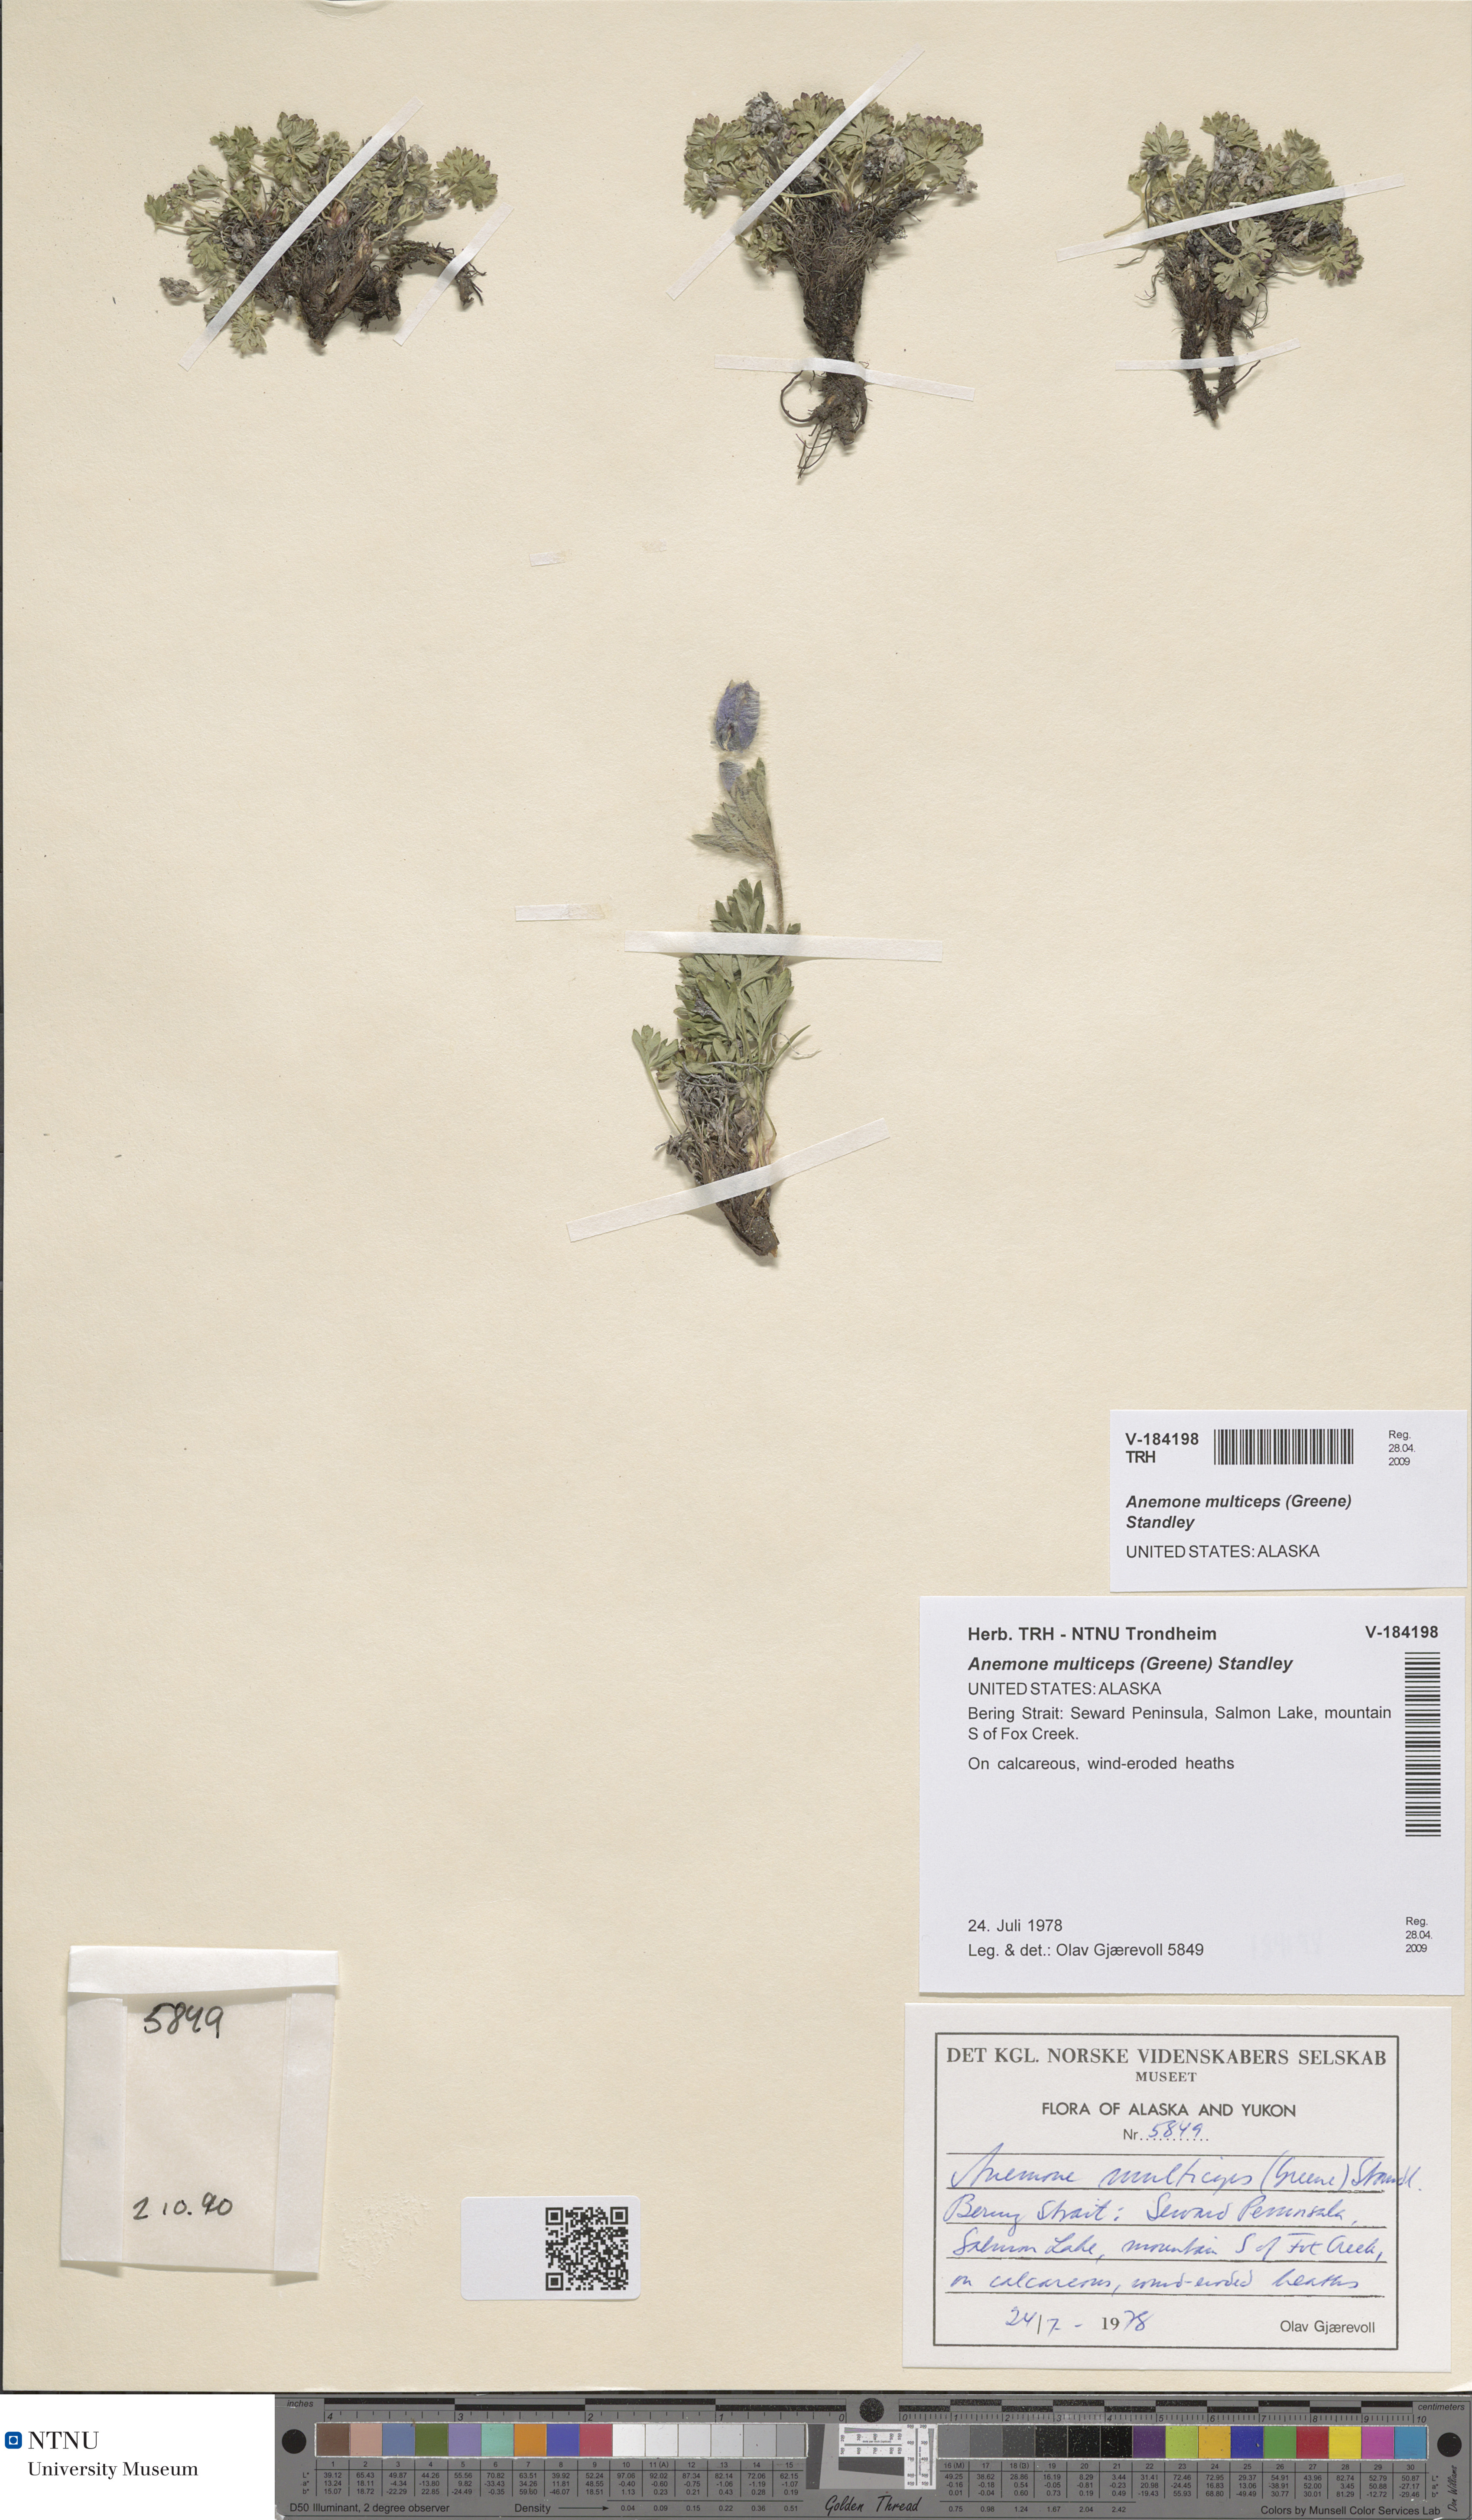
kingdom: Plantae
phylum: Tracheophyta
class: Magnoliopsida
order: Ranunculales
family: Ranunculaceae
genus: Pulsatilla
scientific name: Pulsatilla multiceps
